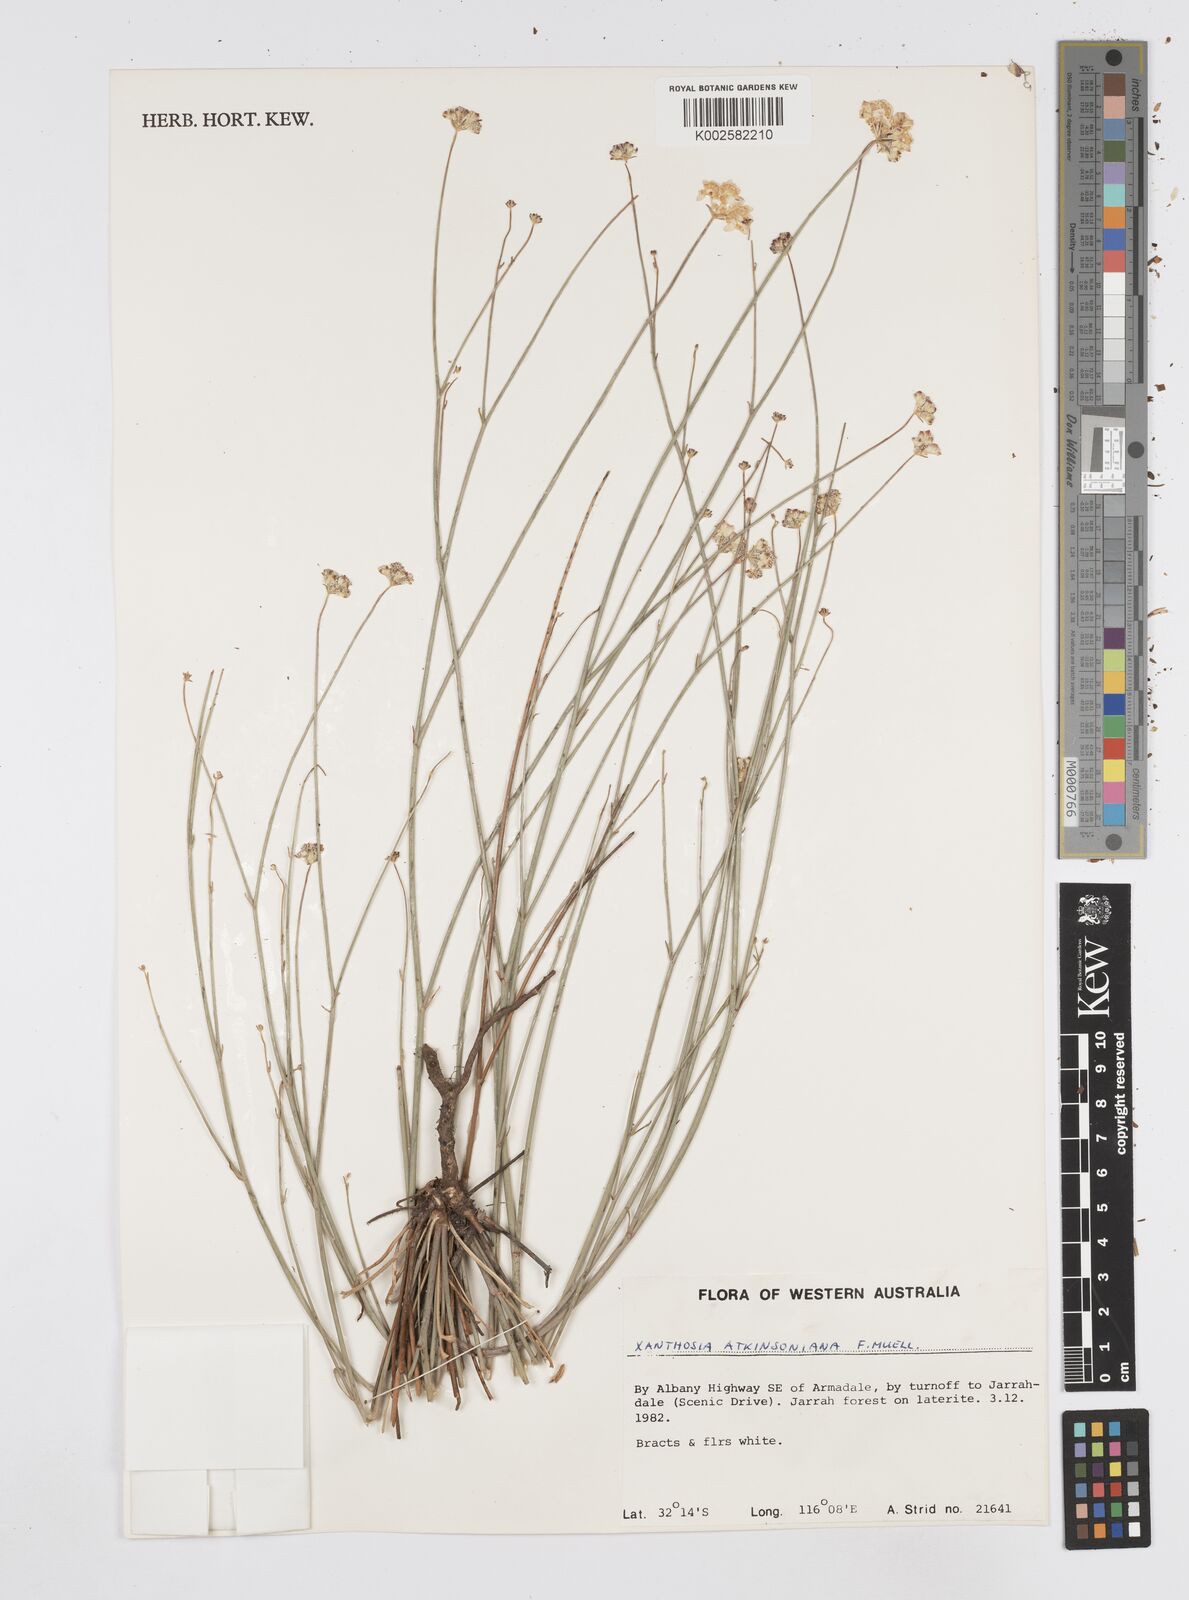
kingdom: Plantae
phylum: Tracheophyta
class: Magnoliopsida
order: Apiales
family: Apiaceae
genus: Xanthosia
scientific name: Xanthosia atkinsoniana
